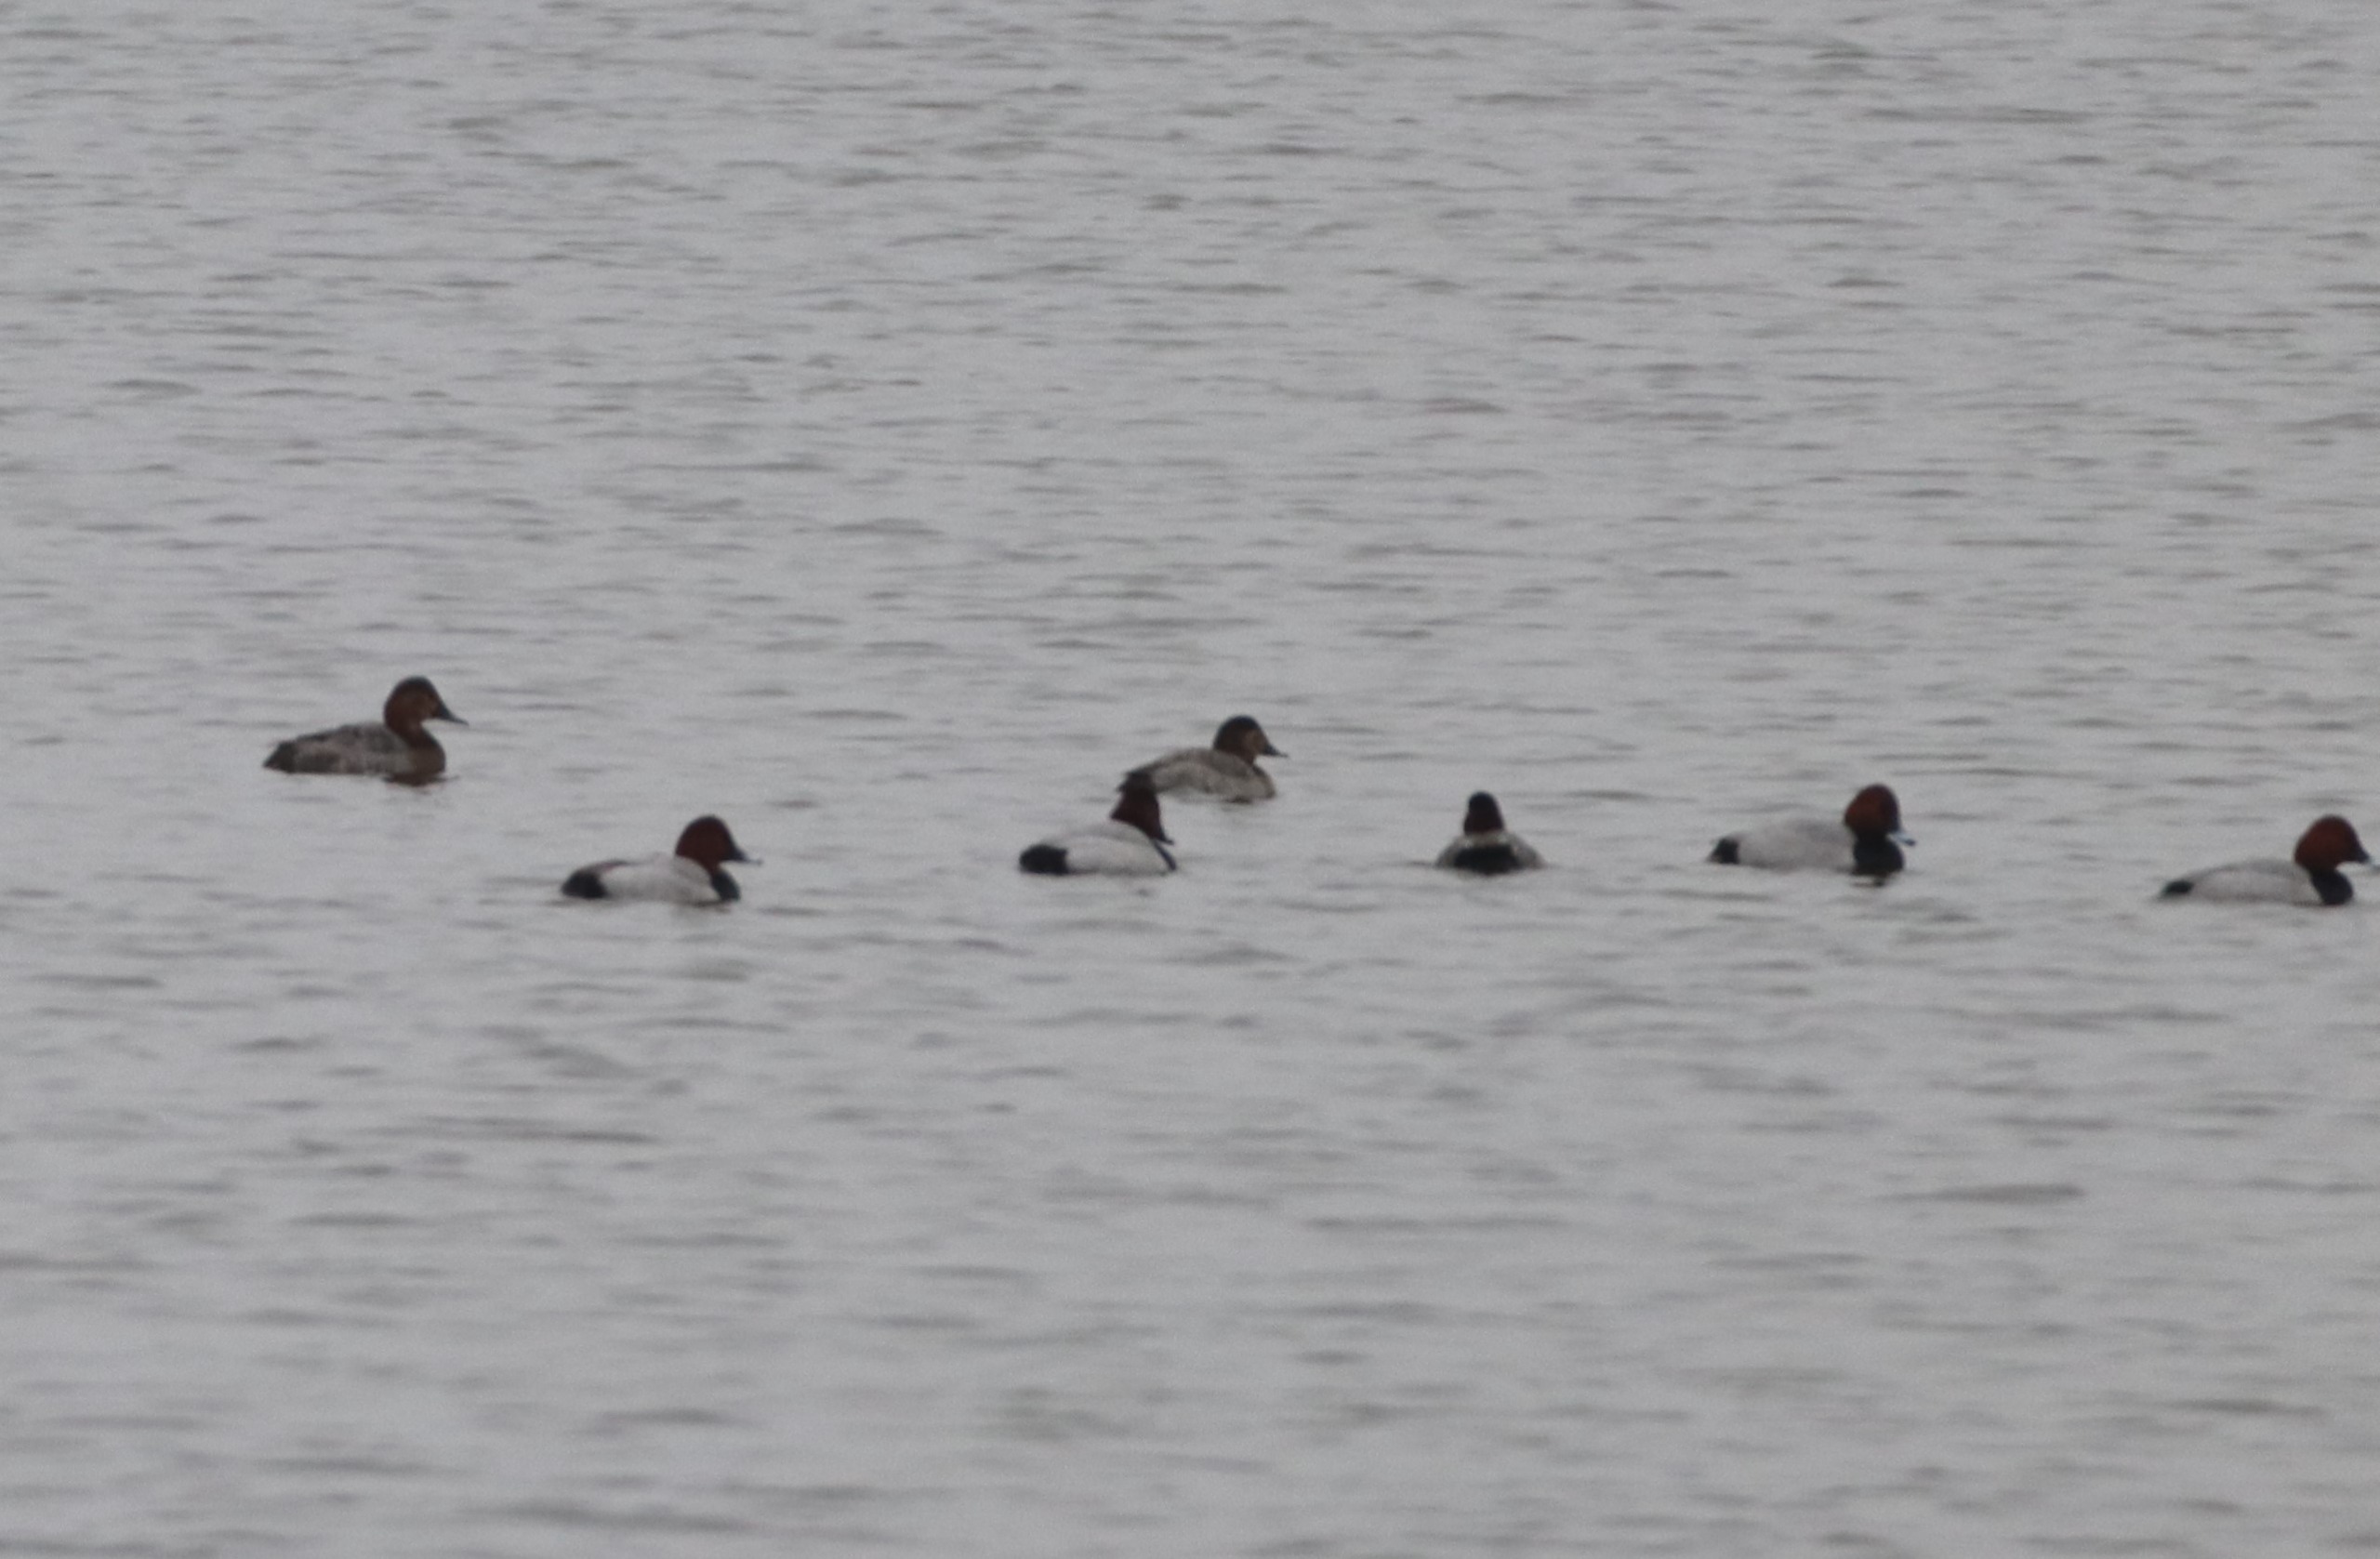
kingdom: Animalia
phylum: Chordata
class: Aves
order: Anseriformes
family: Anatidae
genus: Aythya
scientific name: Aythya ferina
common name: Taffeland
